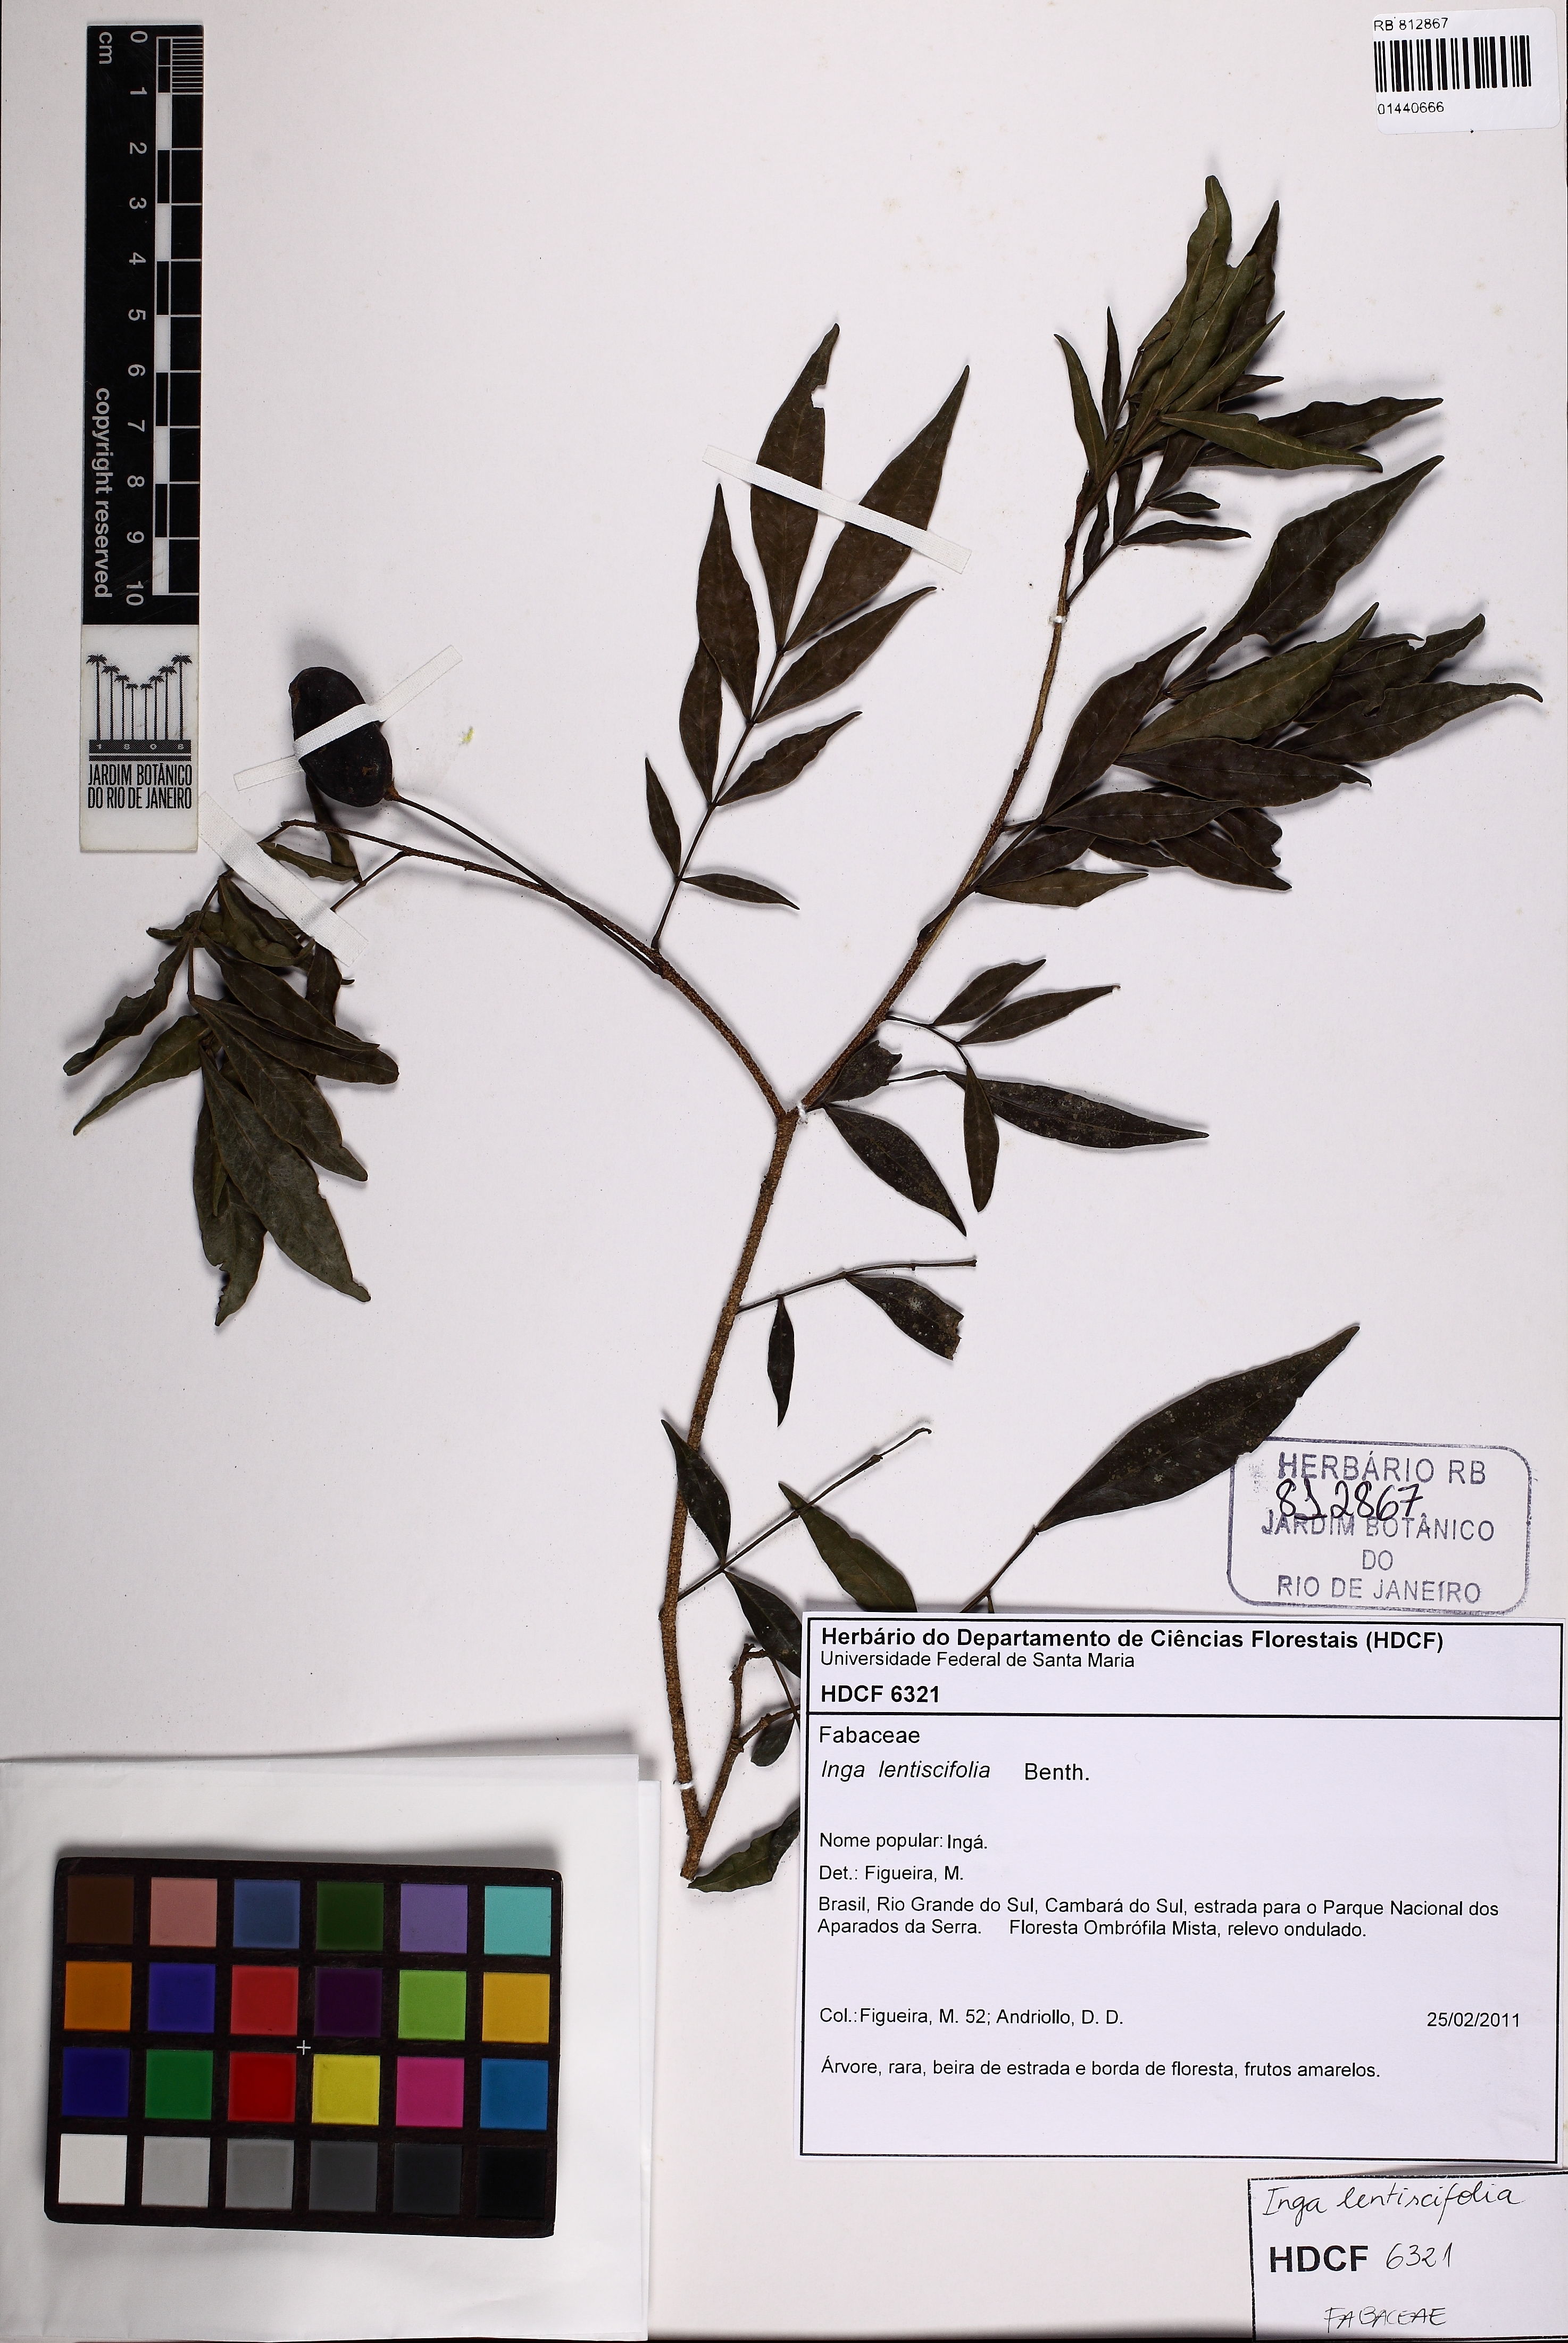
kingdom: Plantae
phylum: Tracheophyta
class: Magnoliopsida
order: Fabales
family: Fabaceae
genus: Inga
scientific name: Inga lentiscifolia
